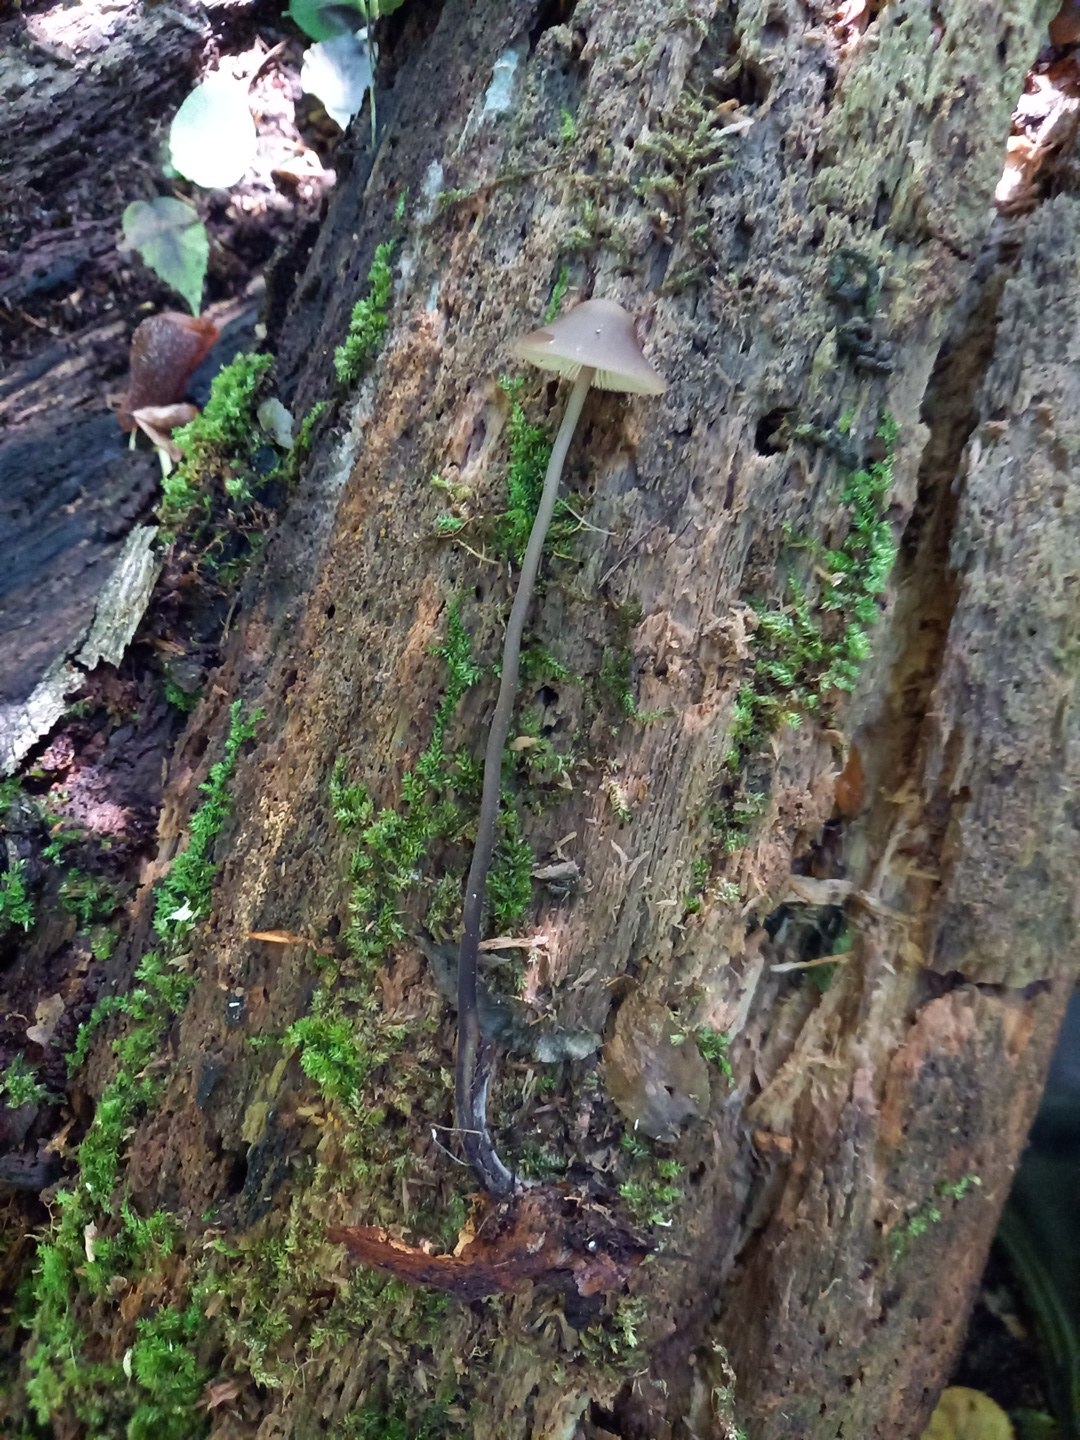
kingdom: Fungi
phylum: Basidiomycota
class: Agaricomycetes
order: Agaricales
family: Omphalotaceae
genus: Mycetinis
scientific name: Mycetinis alliaceus
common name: stor løghat
